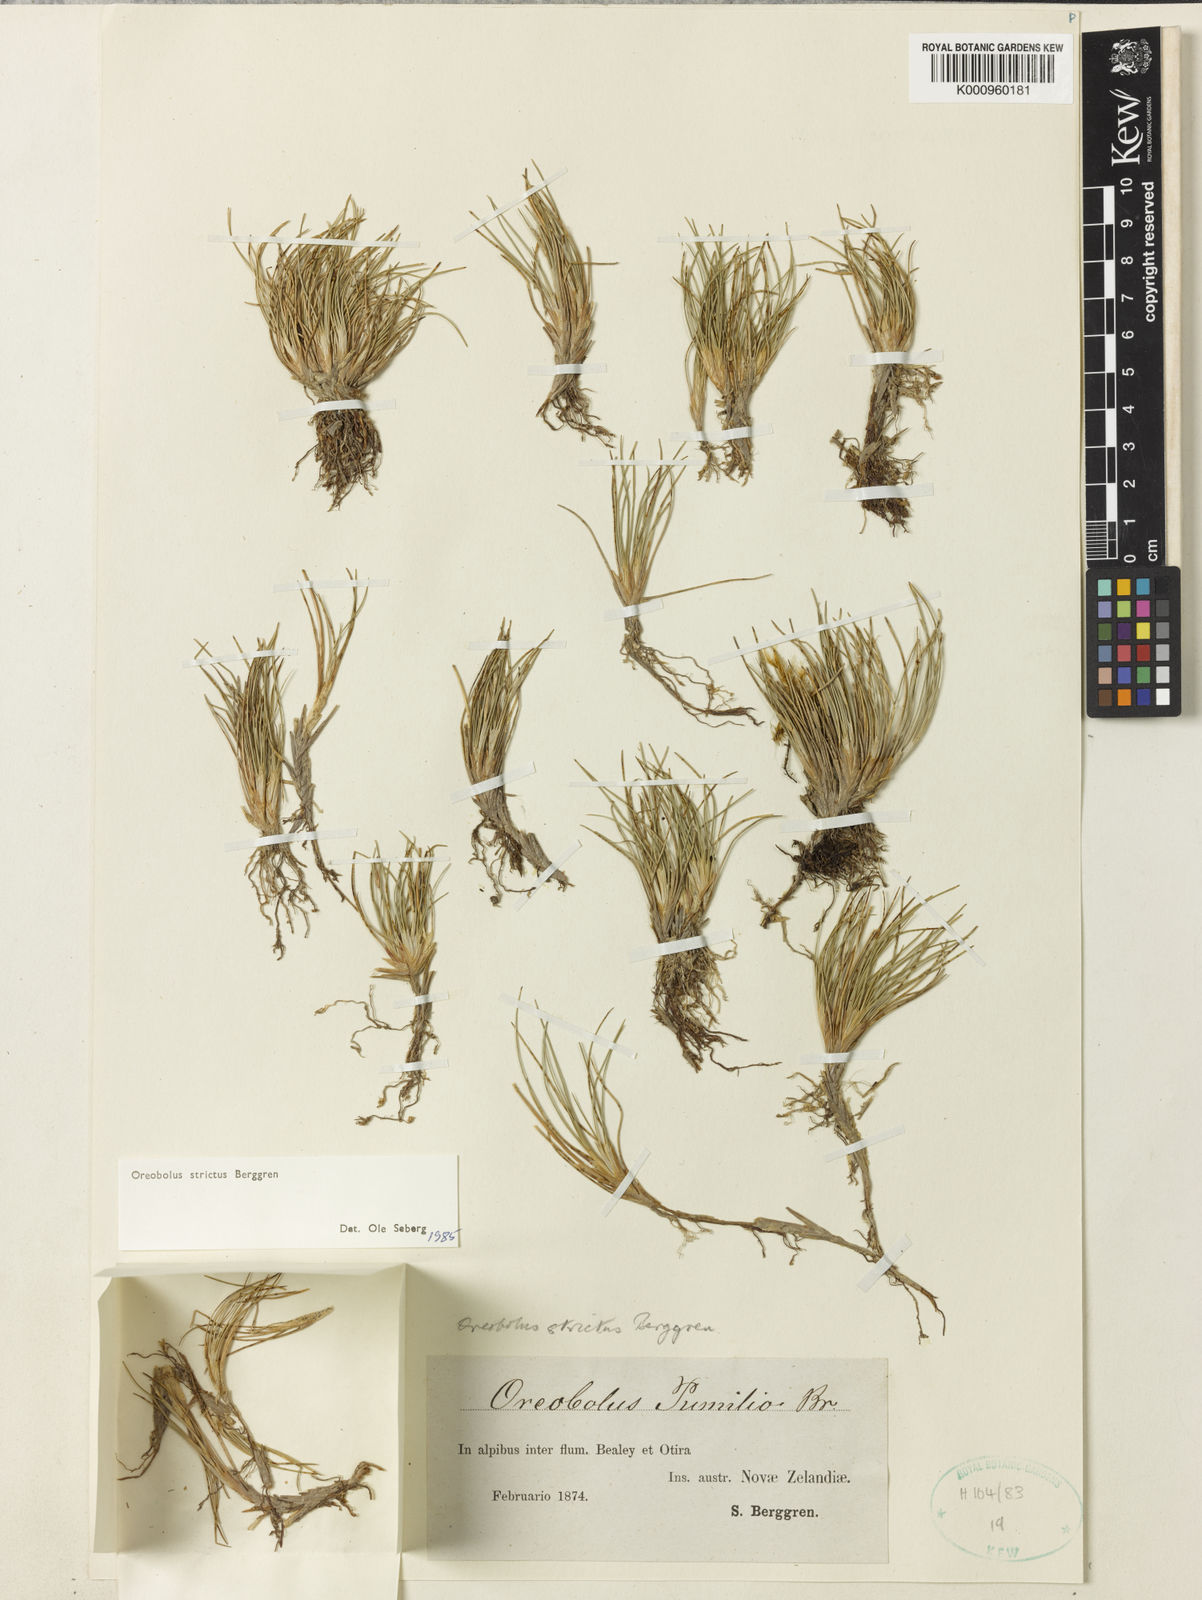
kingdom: Plantae
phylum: Tracheophyta
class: Liliopsida
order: Poales
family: Cyperaceae
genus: Oreobolus
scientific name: Oreobolus strictus
